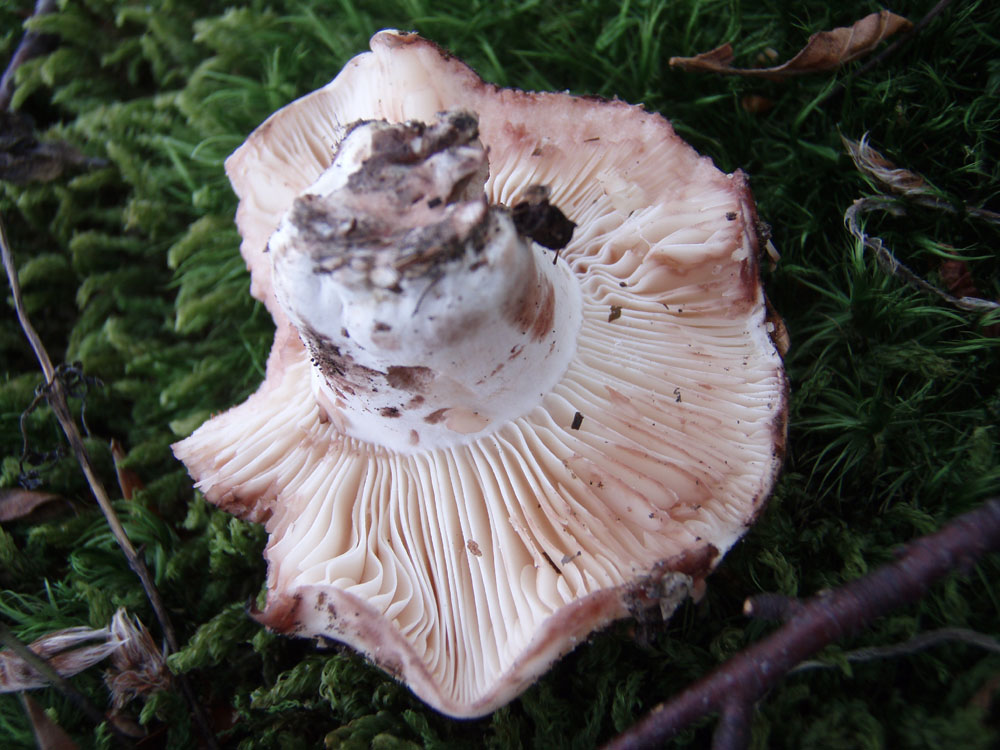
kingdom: Fungi
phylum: Basidiomycota
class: Agaricomycetes
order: Russulales
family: Russulaceae
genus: Russula
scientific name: Russula densifolia
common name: tætbladet skørhat
